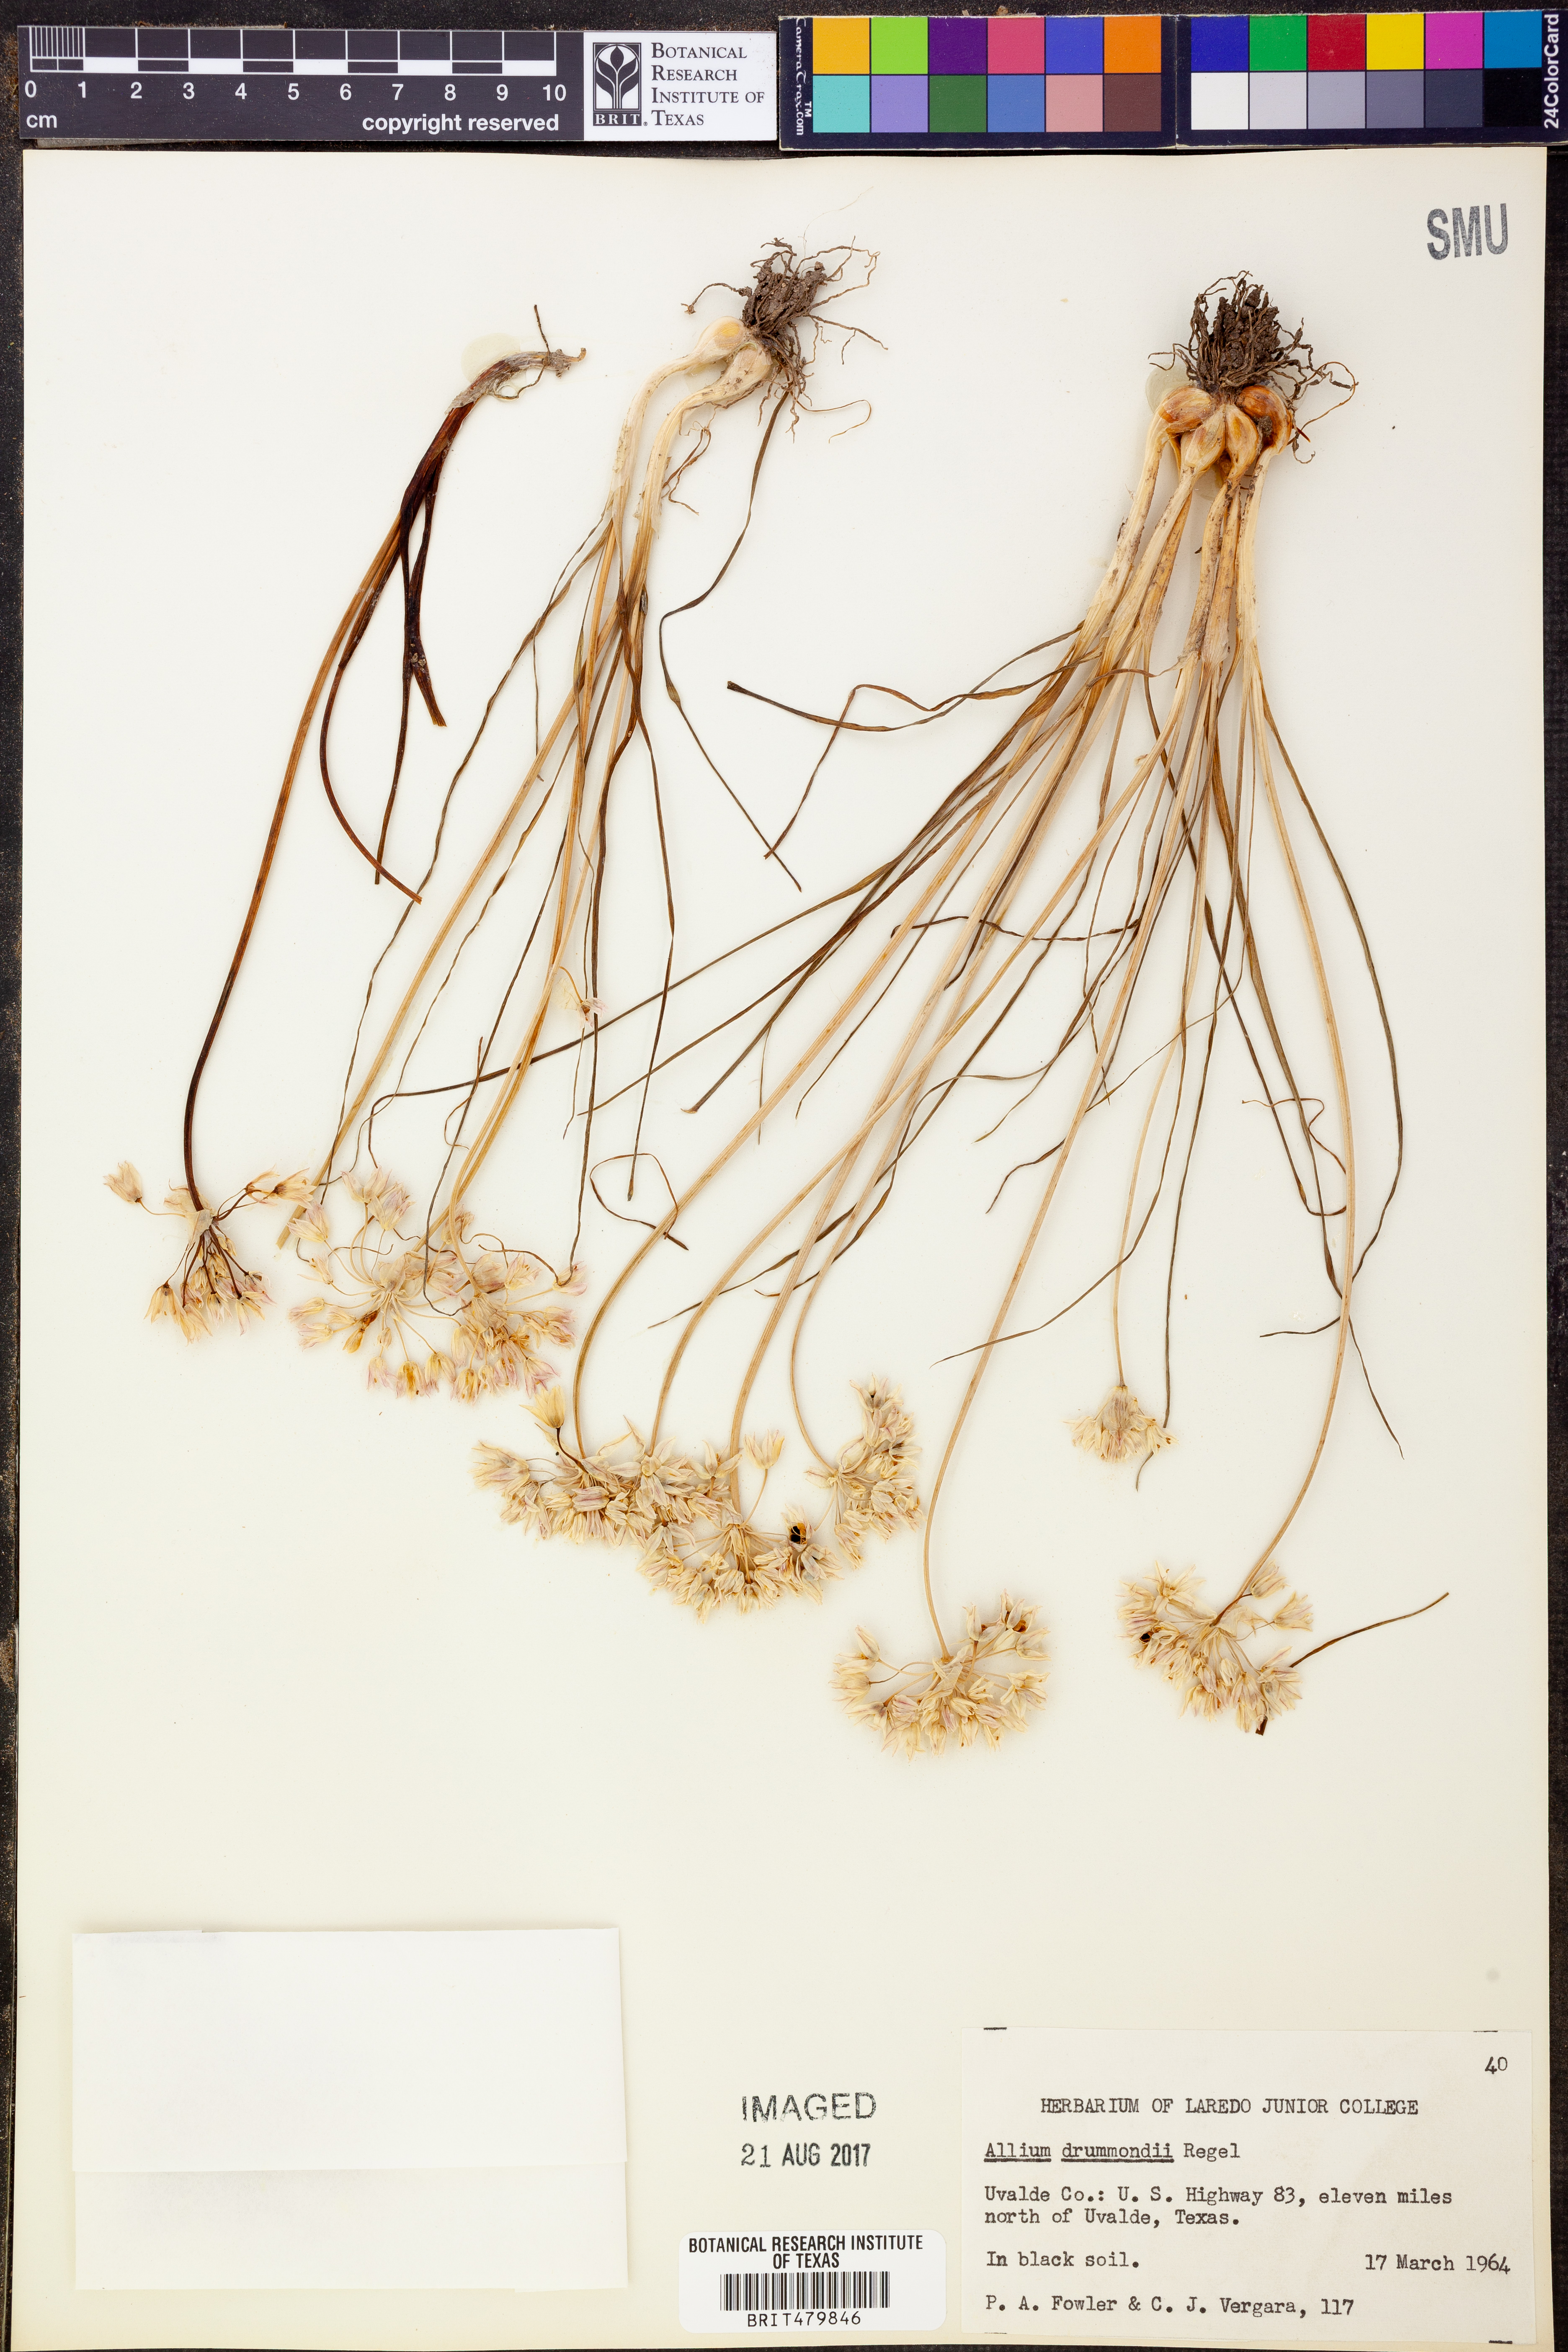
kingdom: Plantae
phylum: Tracheophyta
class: Liliopsida
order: Asparagales
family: Amaryllidaceae
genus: Allium
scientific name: Allium drummondii
